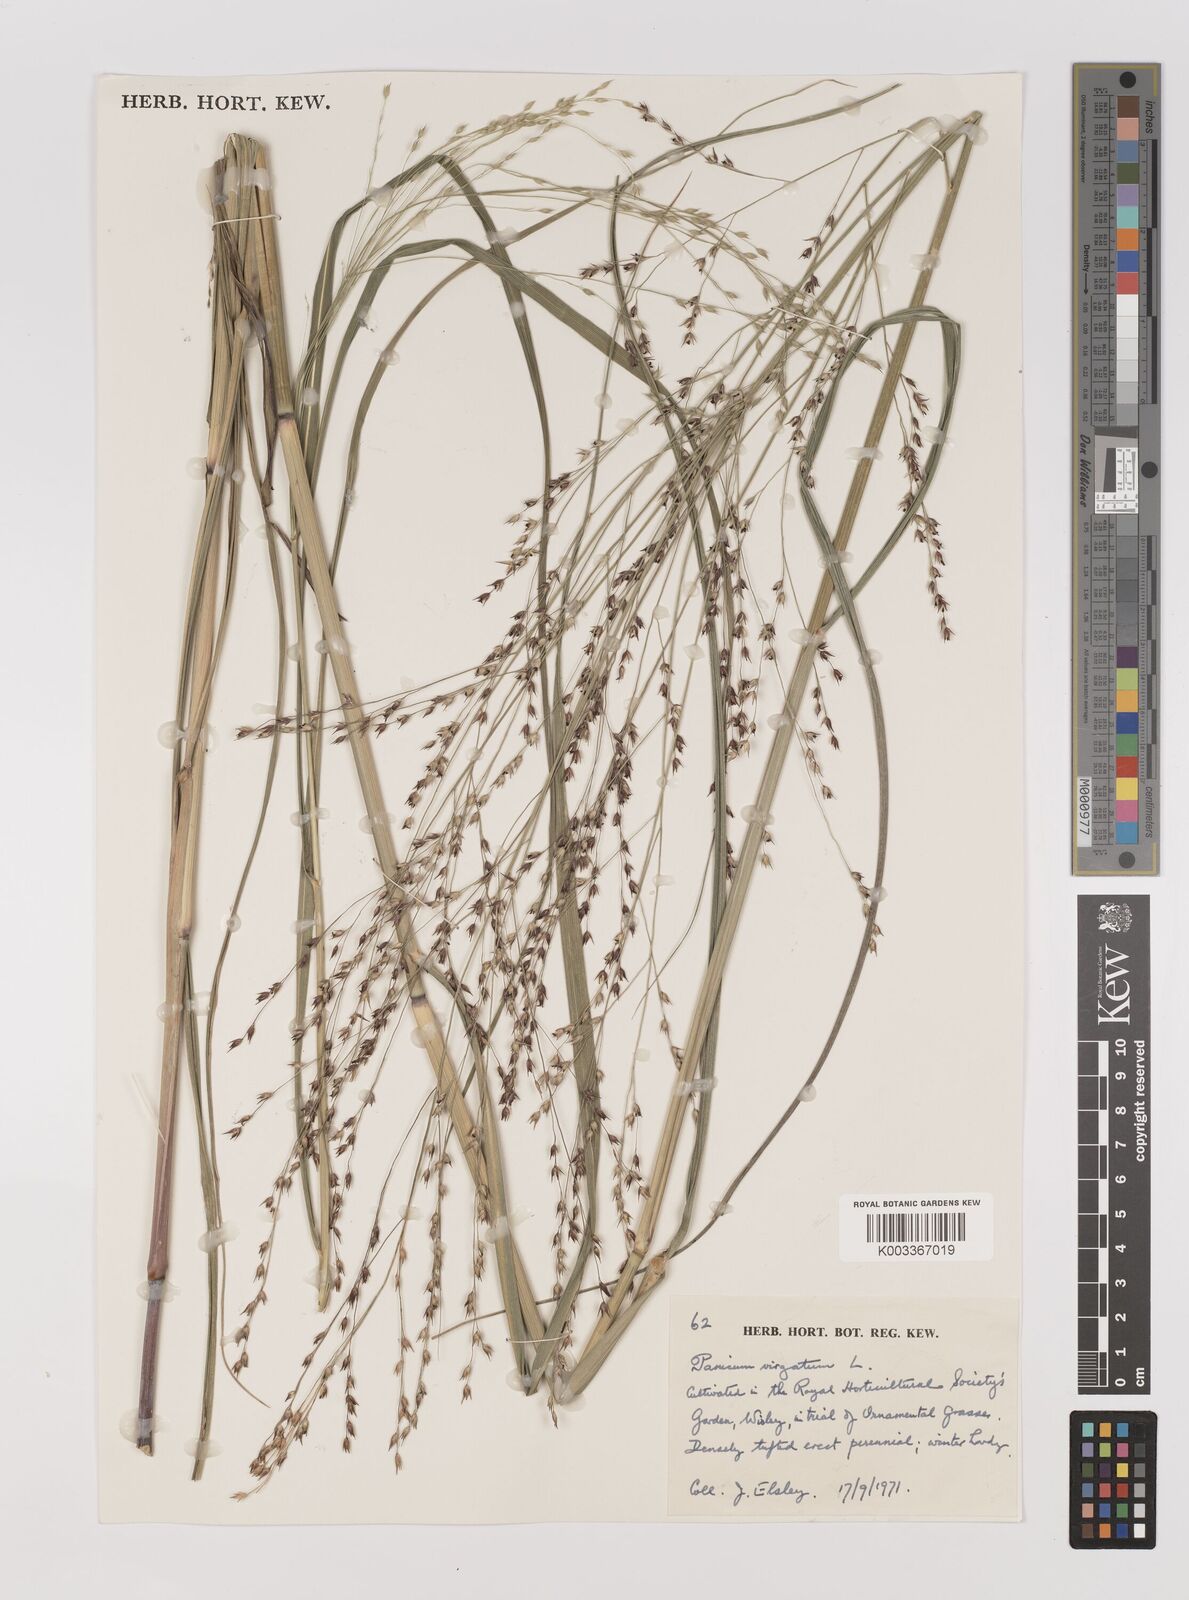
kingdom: Plantae
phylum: Tracheophyta
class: Liliopsida
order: Poales
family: Poaceae
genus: Panicum
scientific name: Panicum virgatum
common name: Switchgrass
